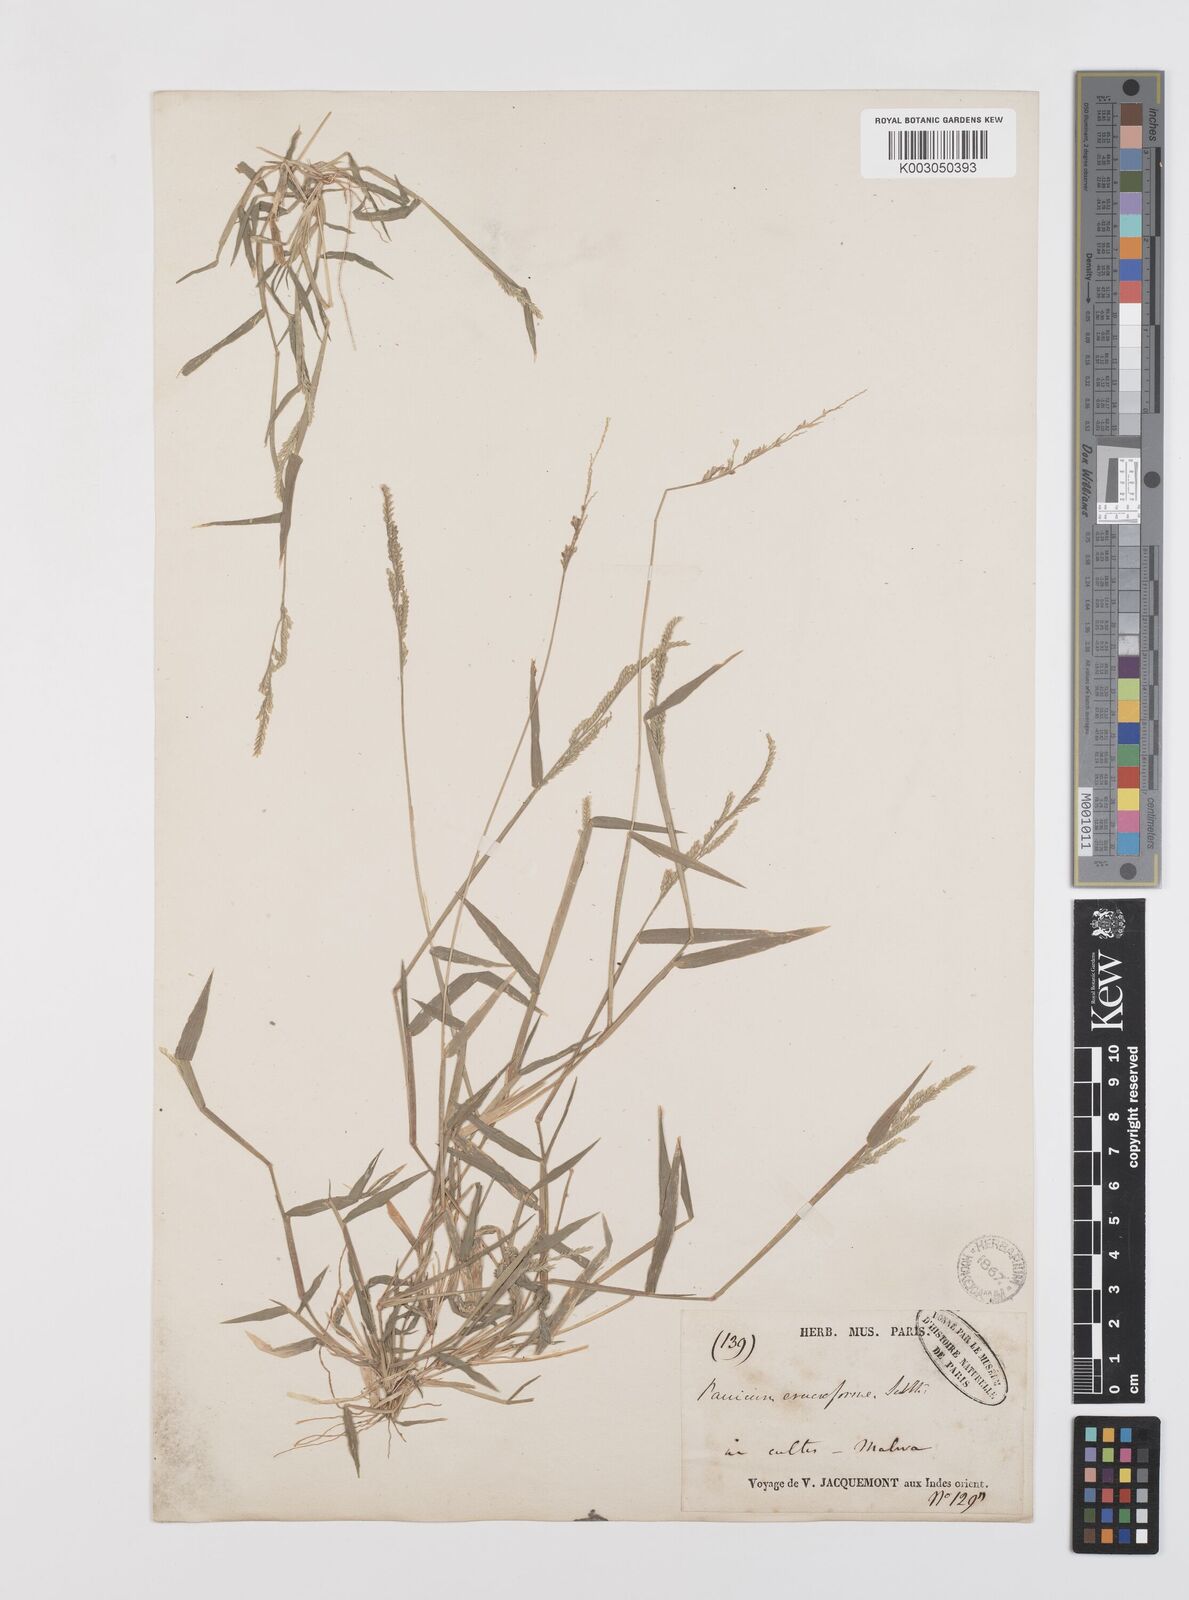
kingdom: Plantae
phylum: Tracheophyta
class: Liliopsida
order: Poales
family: Poaceae
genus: Moorochloa
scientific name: Moorochloa eruciformis
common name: Sweet signalgrass
